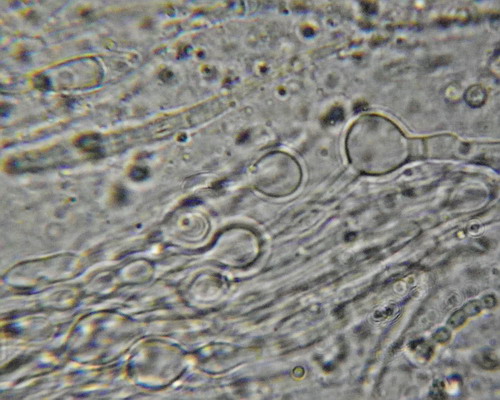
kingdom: Fungi
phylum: Ascomycota
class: Leotiomycetes
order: Helotiales
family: Gelatinodiscaceae
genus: Ascocoryne
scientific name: Ascocoryne sarcoides
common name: rødlilla sejskive
